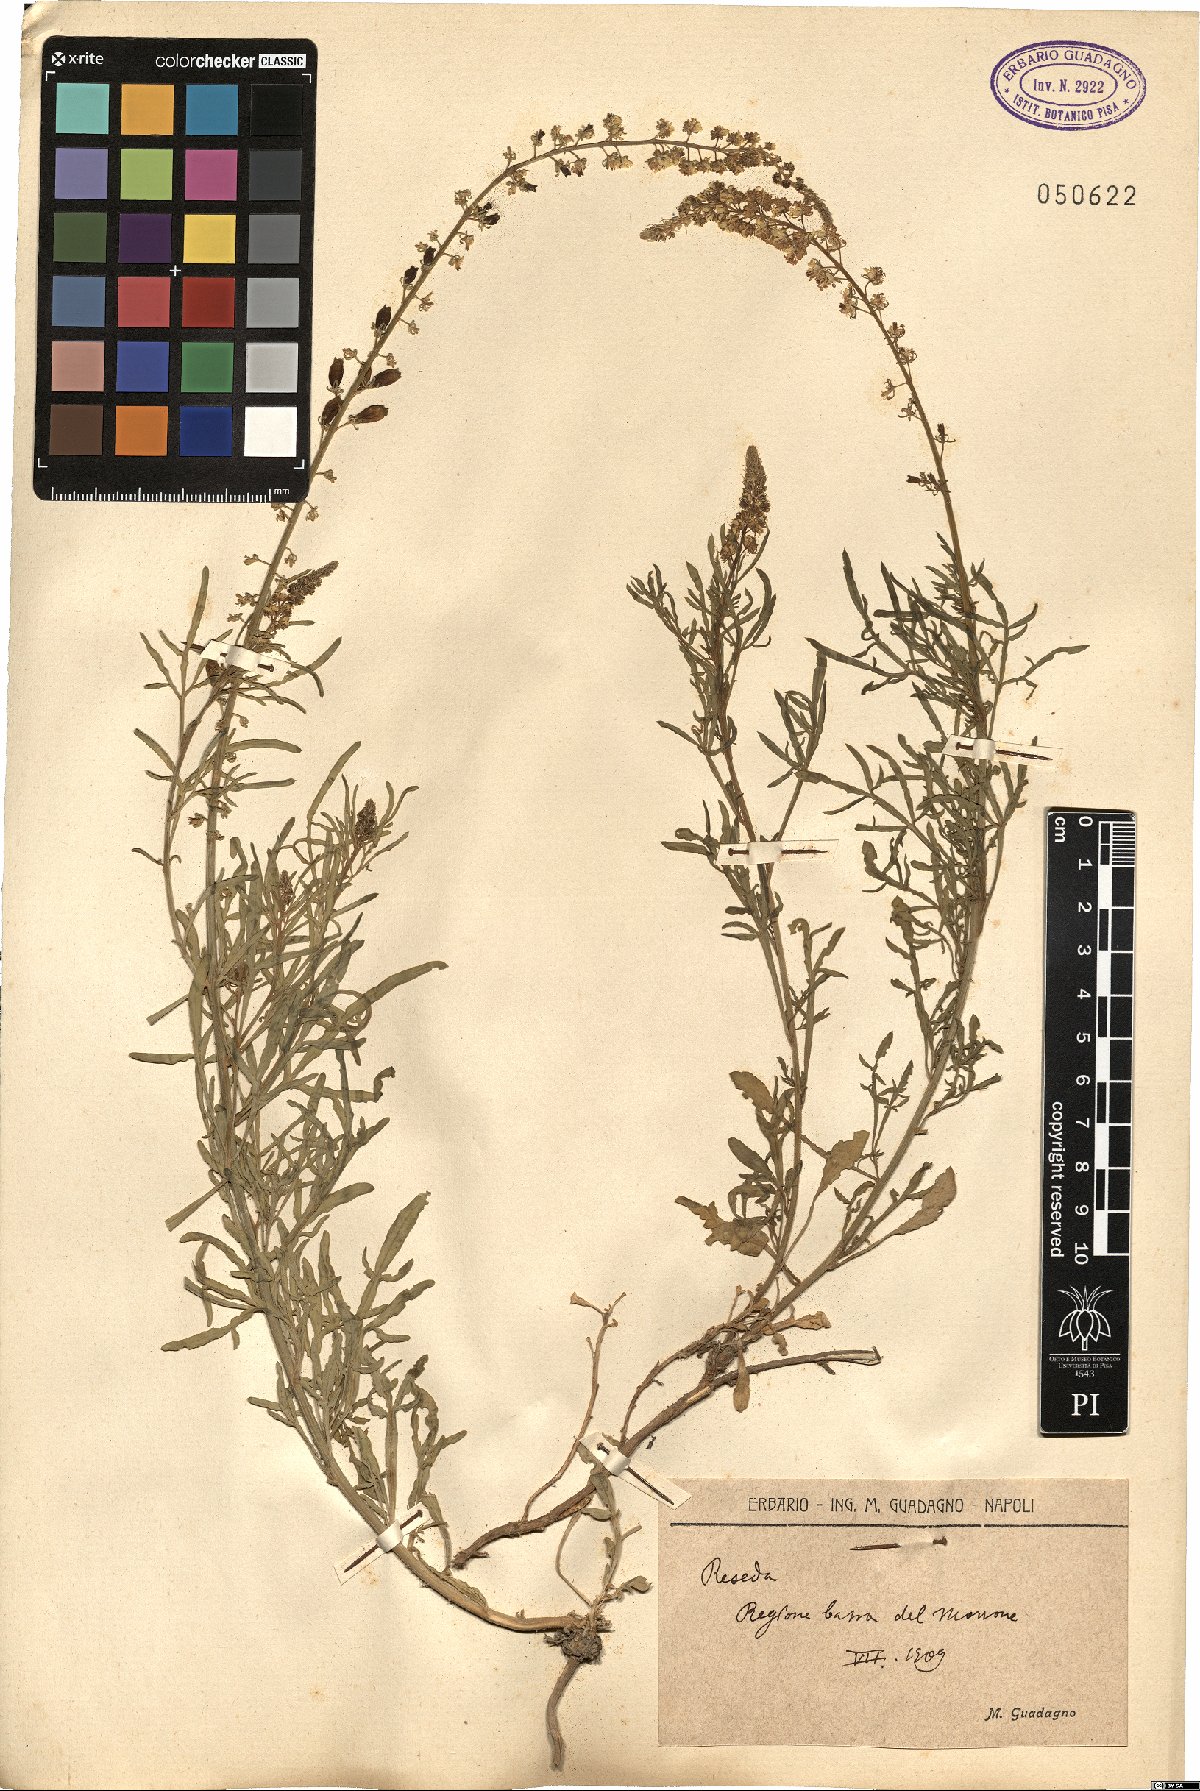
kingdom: Plantae
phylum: Tracheophyta
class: Magnoliopsida
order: Brassicales
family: Resedaceae
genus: Reseda
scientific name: Reseda
